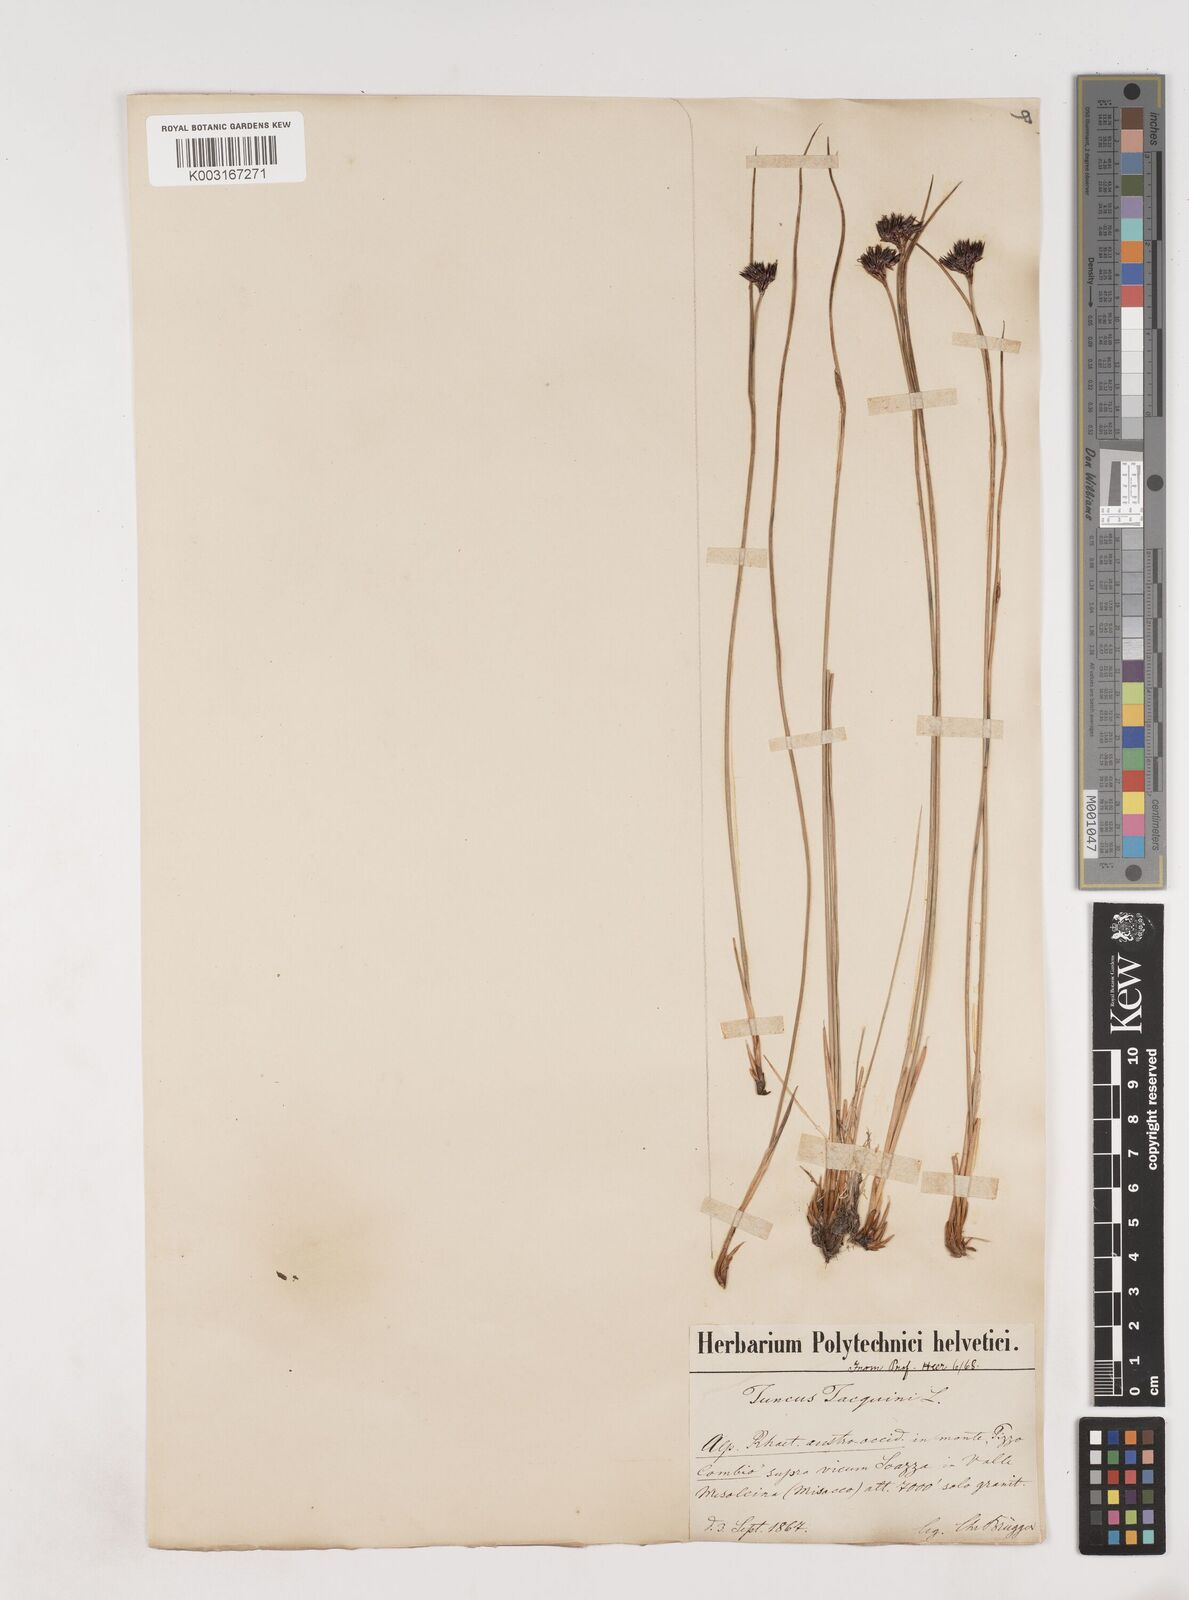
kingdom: Plantae
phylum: Tracheophyta
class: Liliopsida
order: Poales
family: Juncaceae
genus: Juncus
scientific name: Juncus jacquinii
